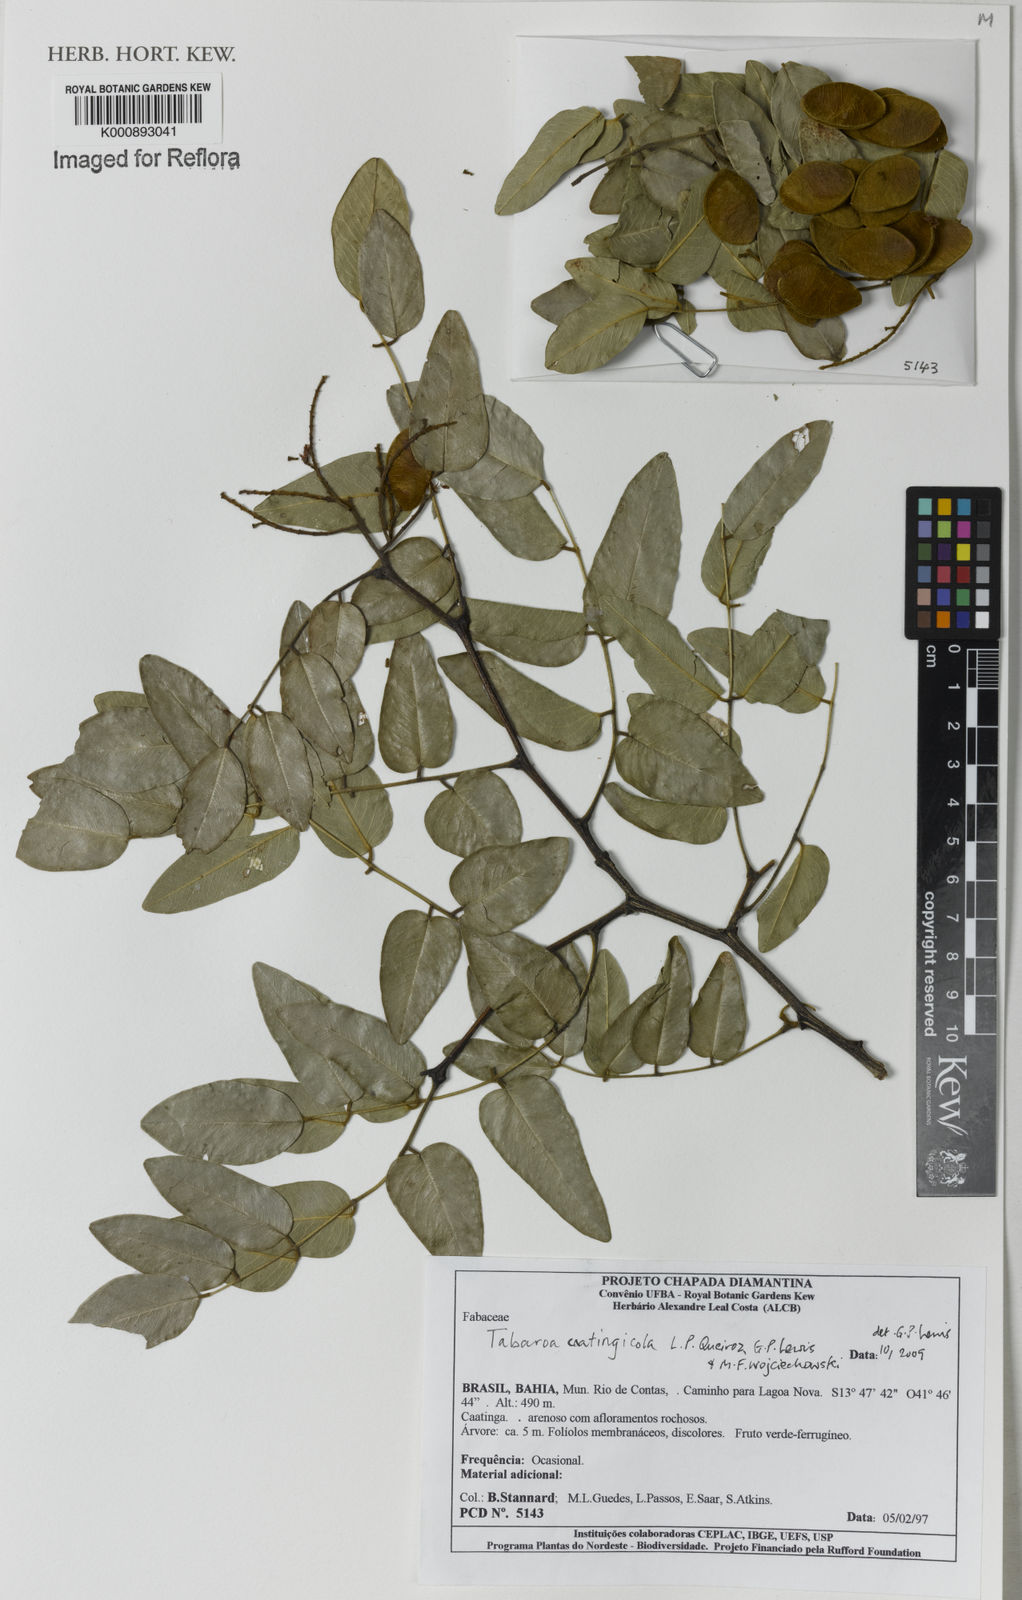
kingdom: Plantae
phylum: Tracheophyta
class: Magnoliopsida
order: Fabales
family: Fabaceae
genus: Tabaroa
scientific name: Tabaroa caatingicola
